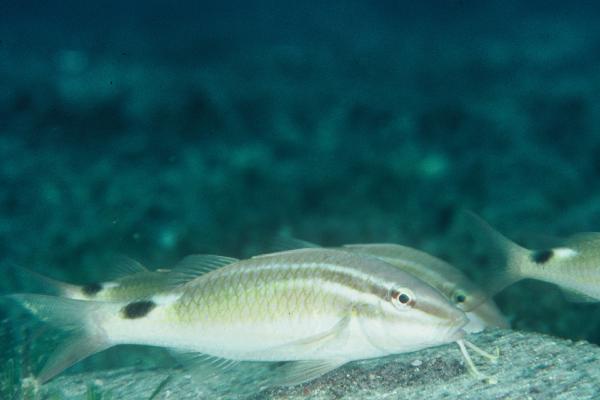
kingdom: Animalia
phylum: Chordata
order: Perciformes
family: Mullidae
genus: Parupeneus
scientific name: Parupeneus rubescens
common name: Rosy goatfish
